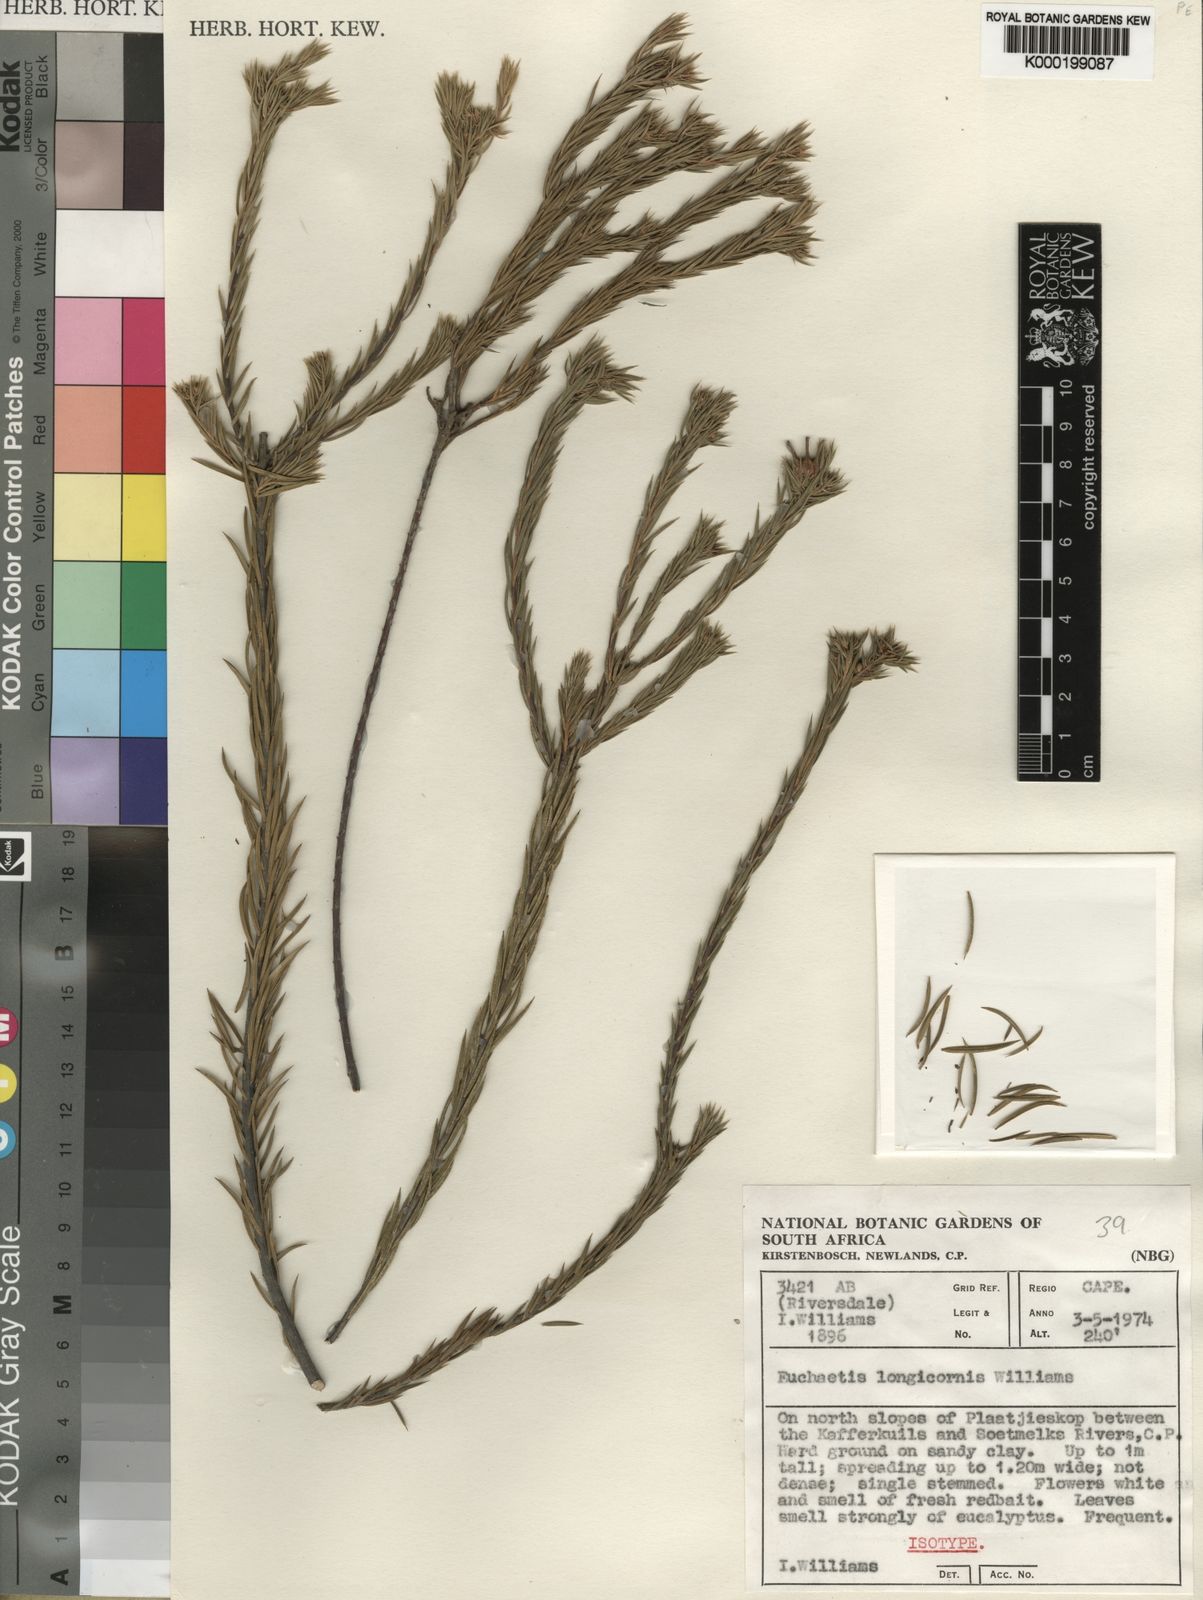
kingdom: Plantae
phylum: Tracheophyta
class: Magnoliopsida
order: Sapindales
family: Rutaceae
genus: Euchaetis
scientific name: Euchaetis longicornis
